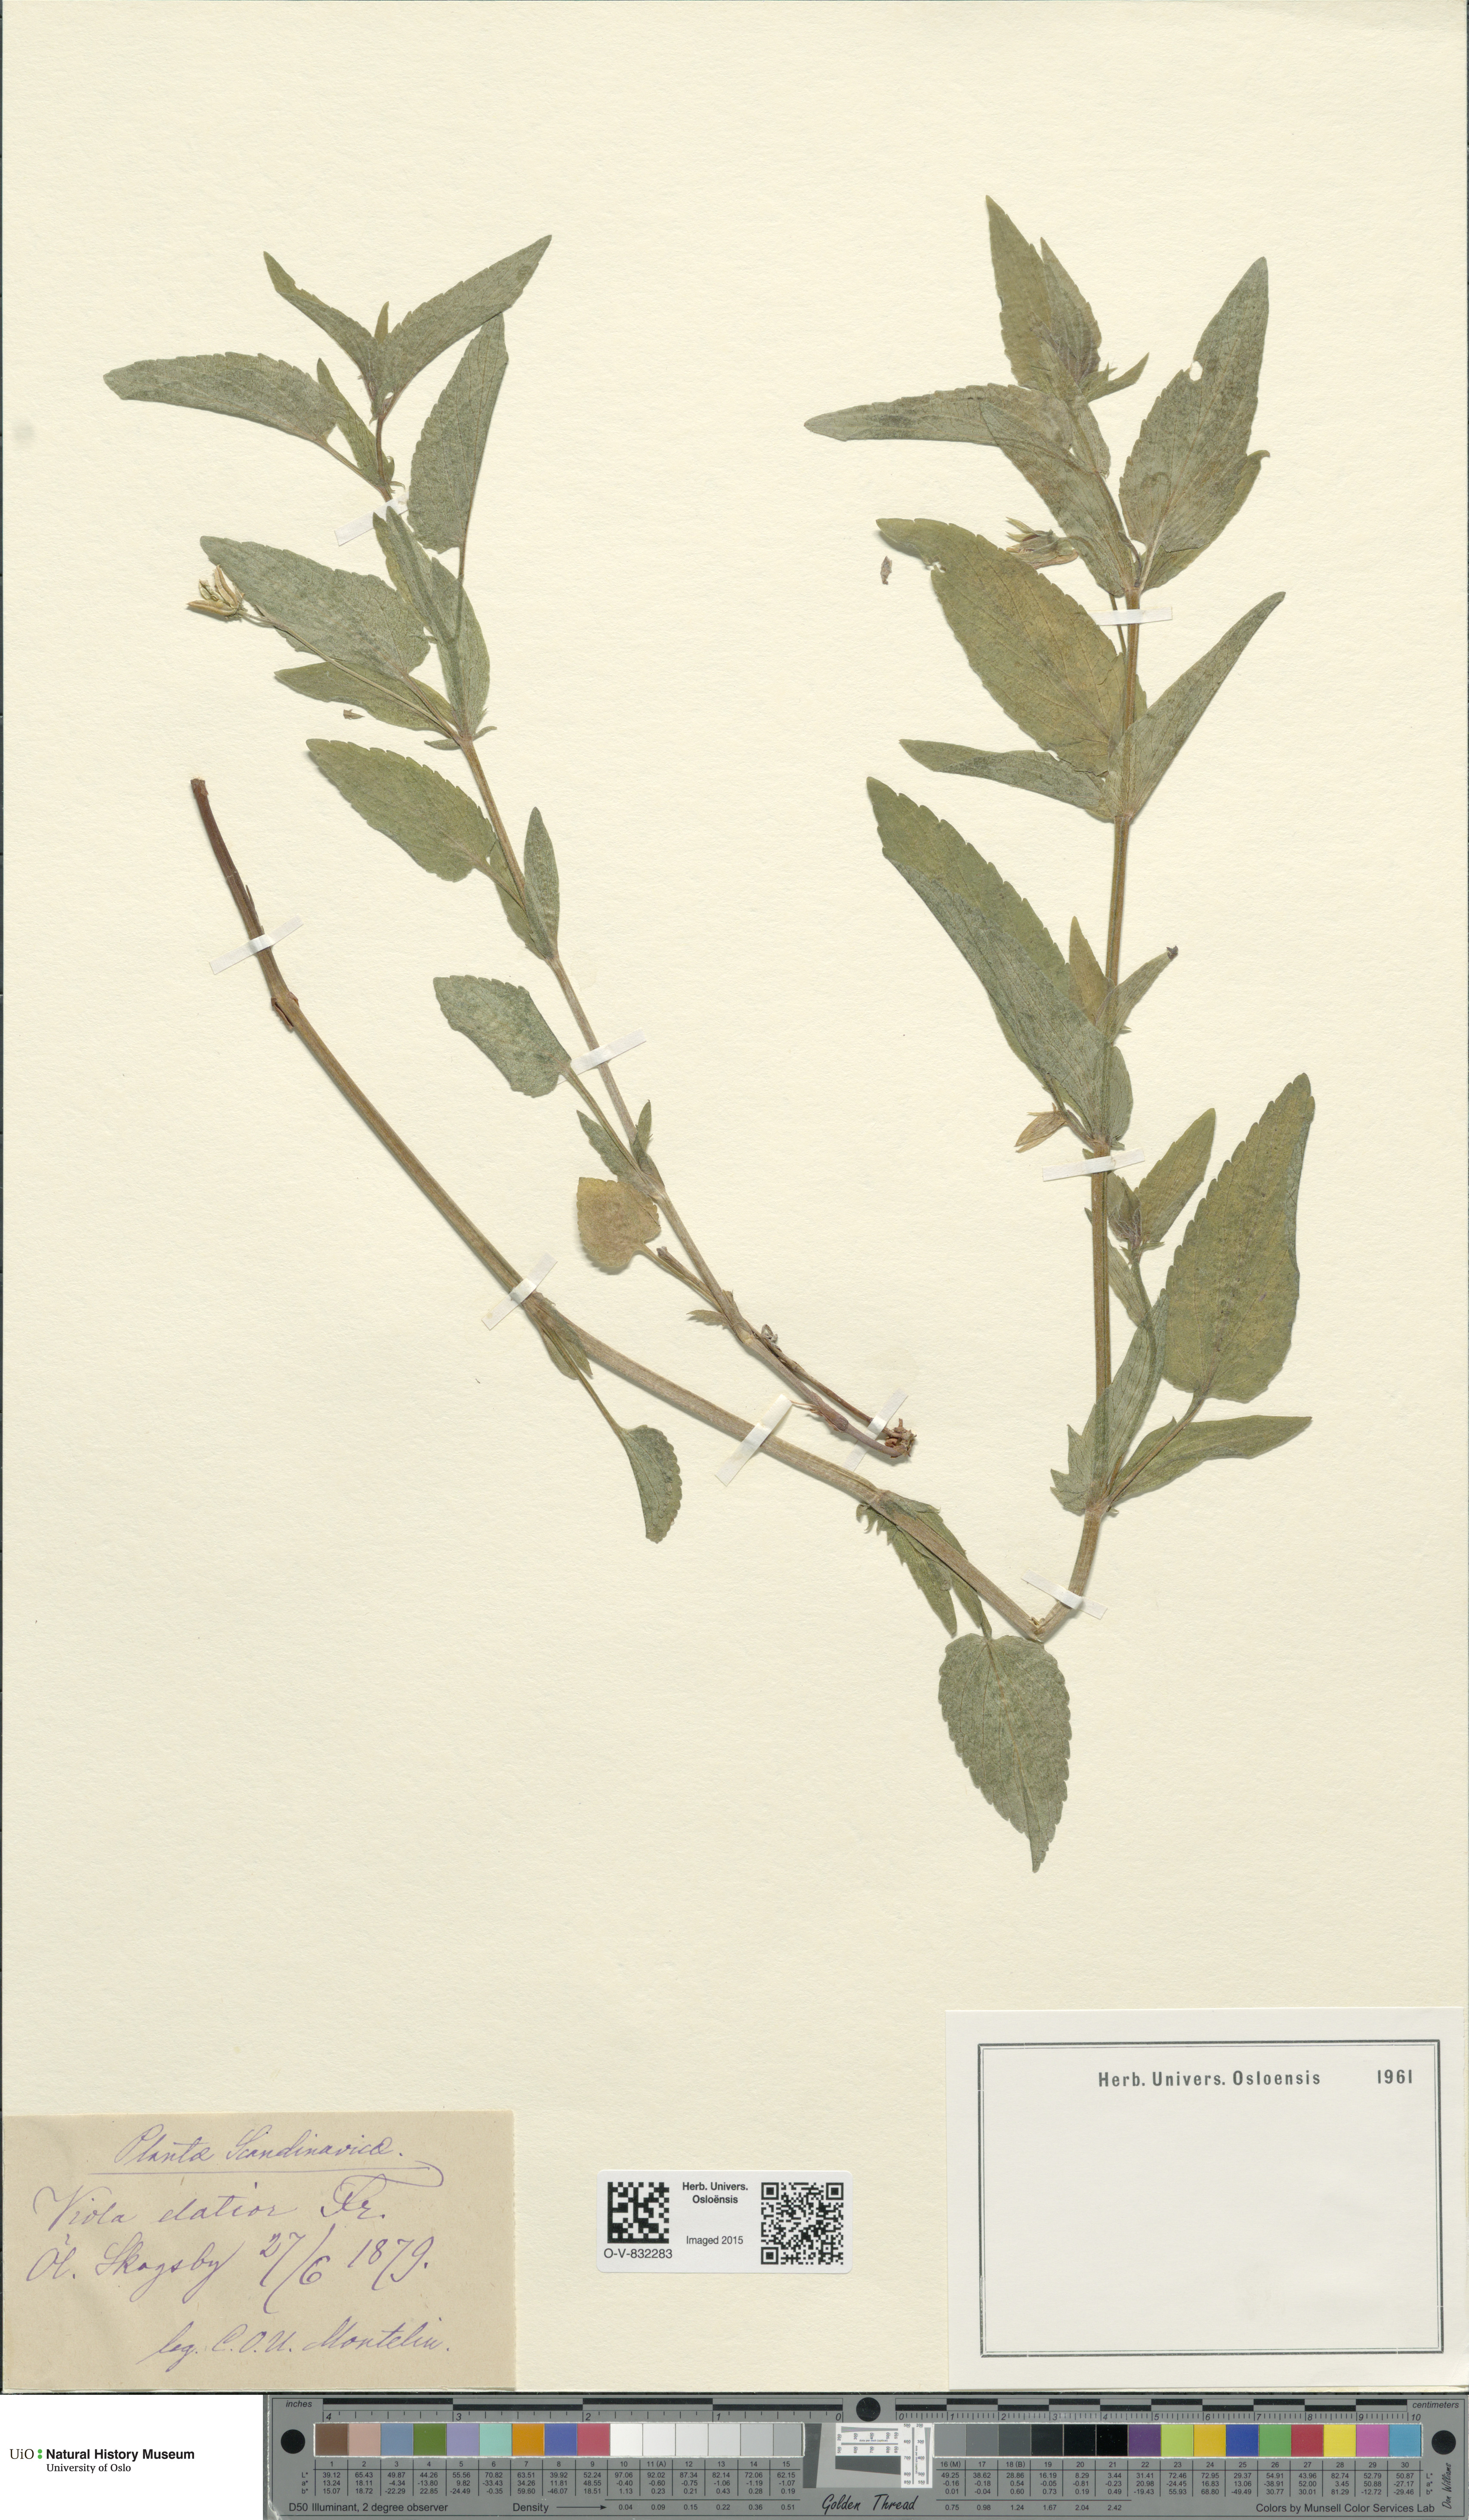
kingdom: Plantae
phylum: Tracheophyta
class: Magnoliopsida
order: Malpighiales
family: Violaceae
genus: Viola
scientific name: Viola elatior
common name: Tall violet
